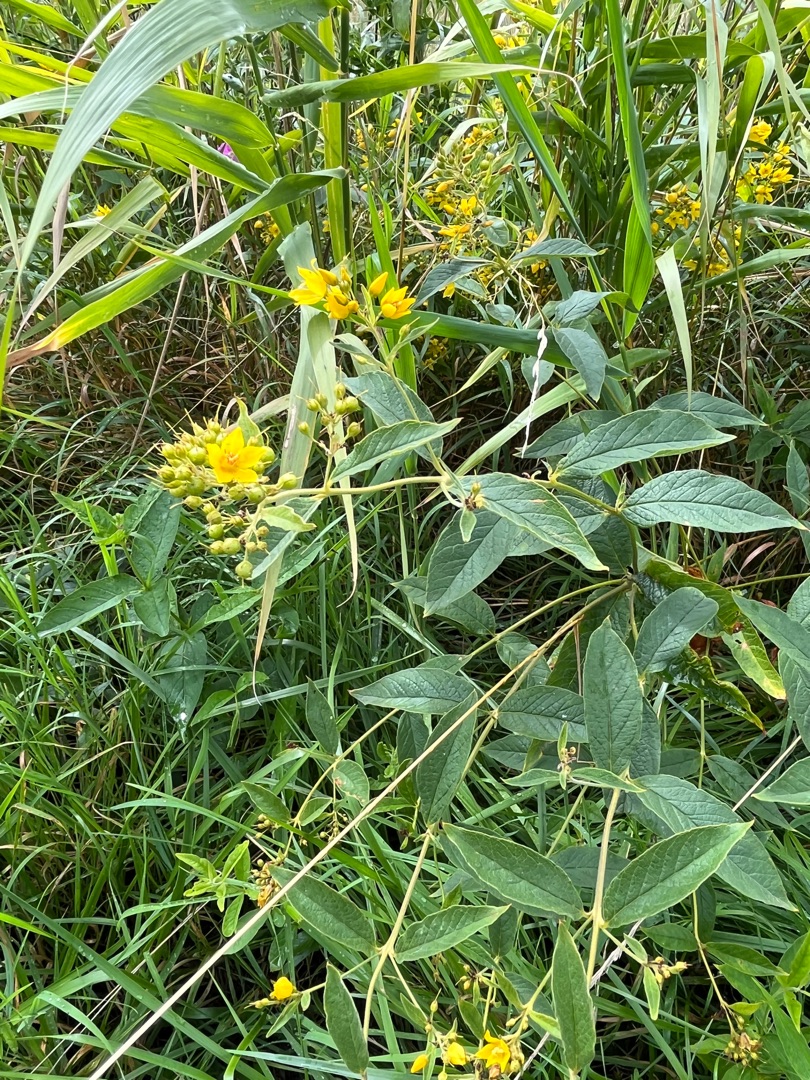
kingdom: Plantae
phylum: Tracheophyta
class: Magnoliopsida
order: Ericales
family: Primulaceae
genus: Lysimachia
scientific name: Lysimachia vulgaris
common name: Almindelig fredløs
